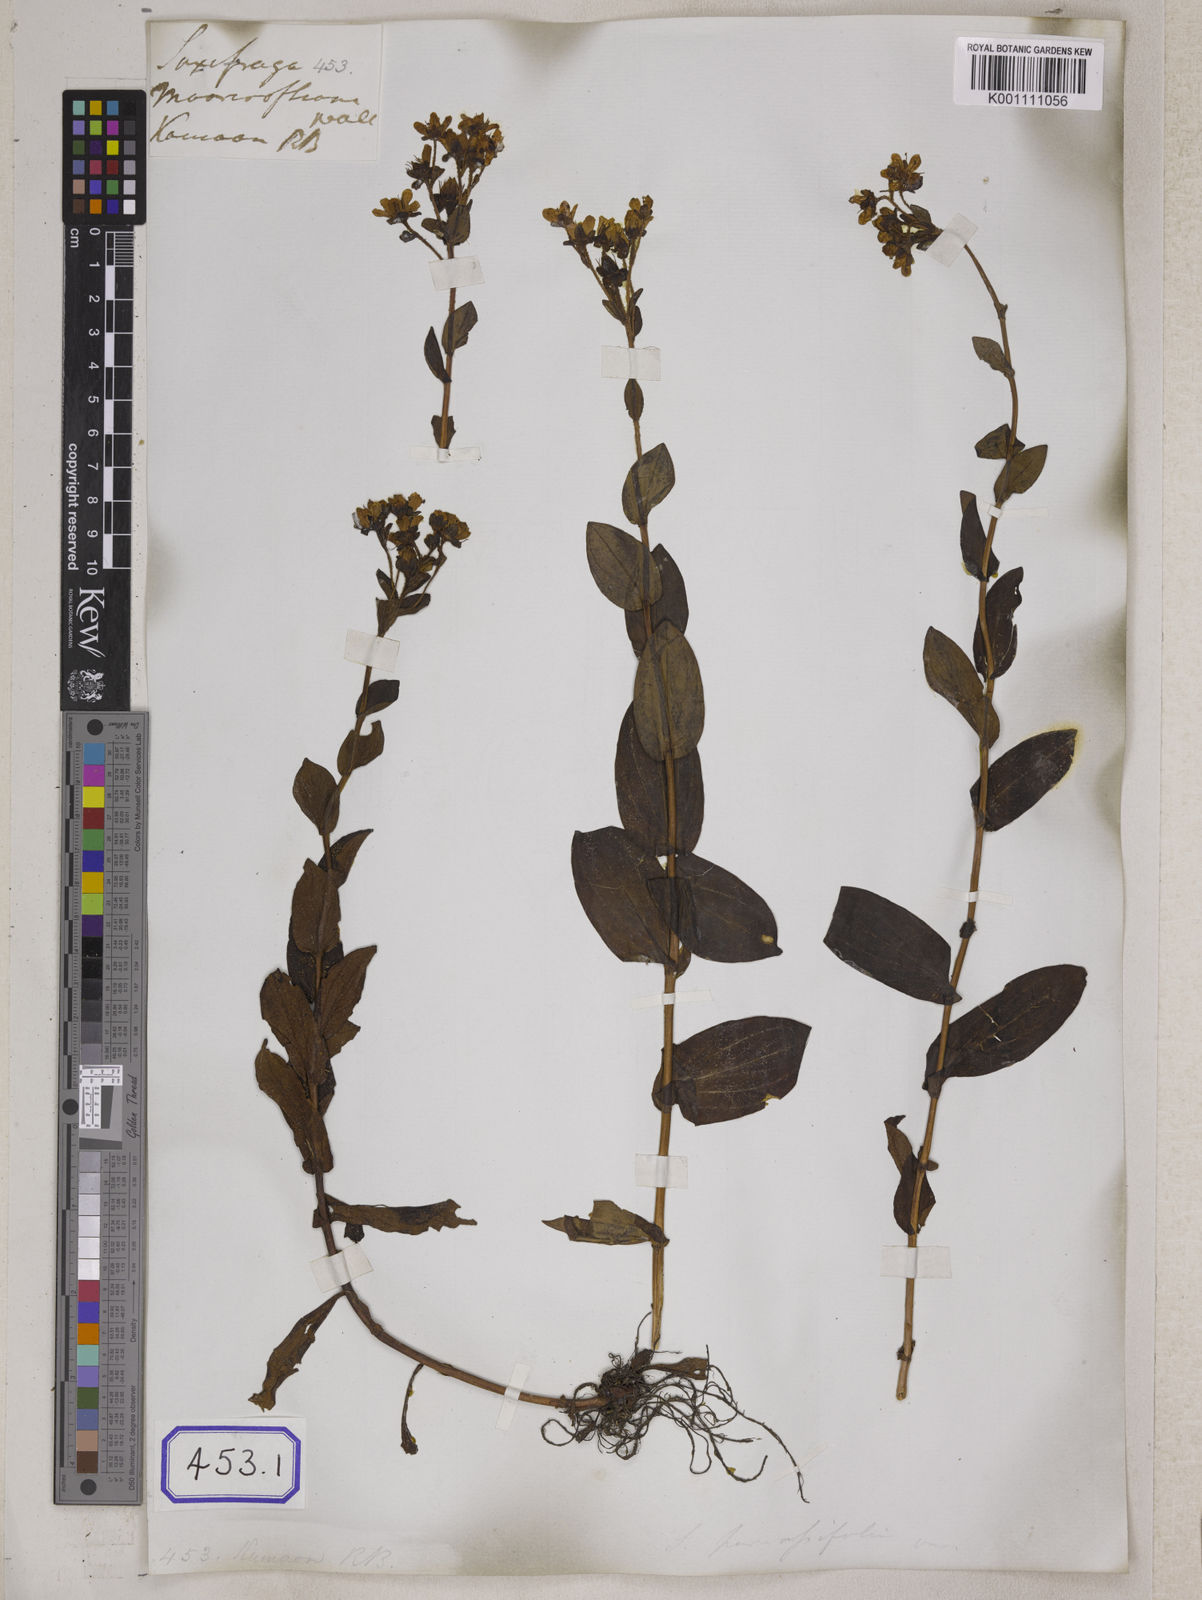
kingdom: Plantae
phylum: Tracheophyta
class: Magnoliopsida
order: Saxifragales
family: Saxifragaceae
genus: Saxifraga
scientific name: Saxifraga
